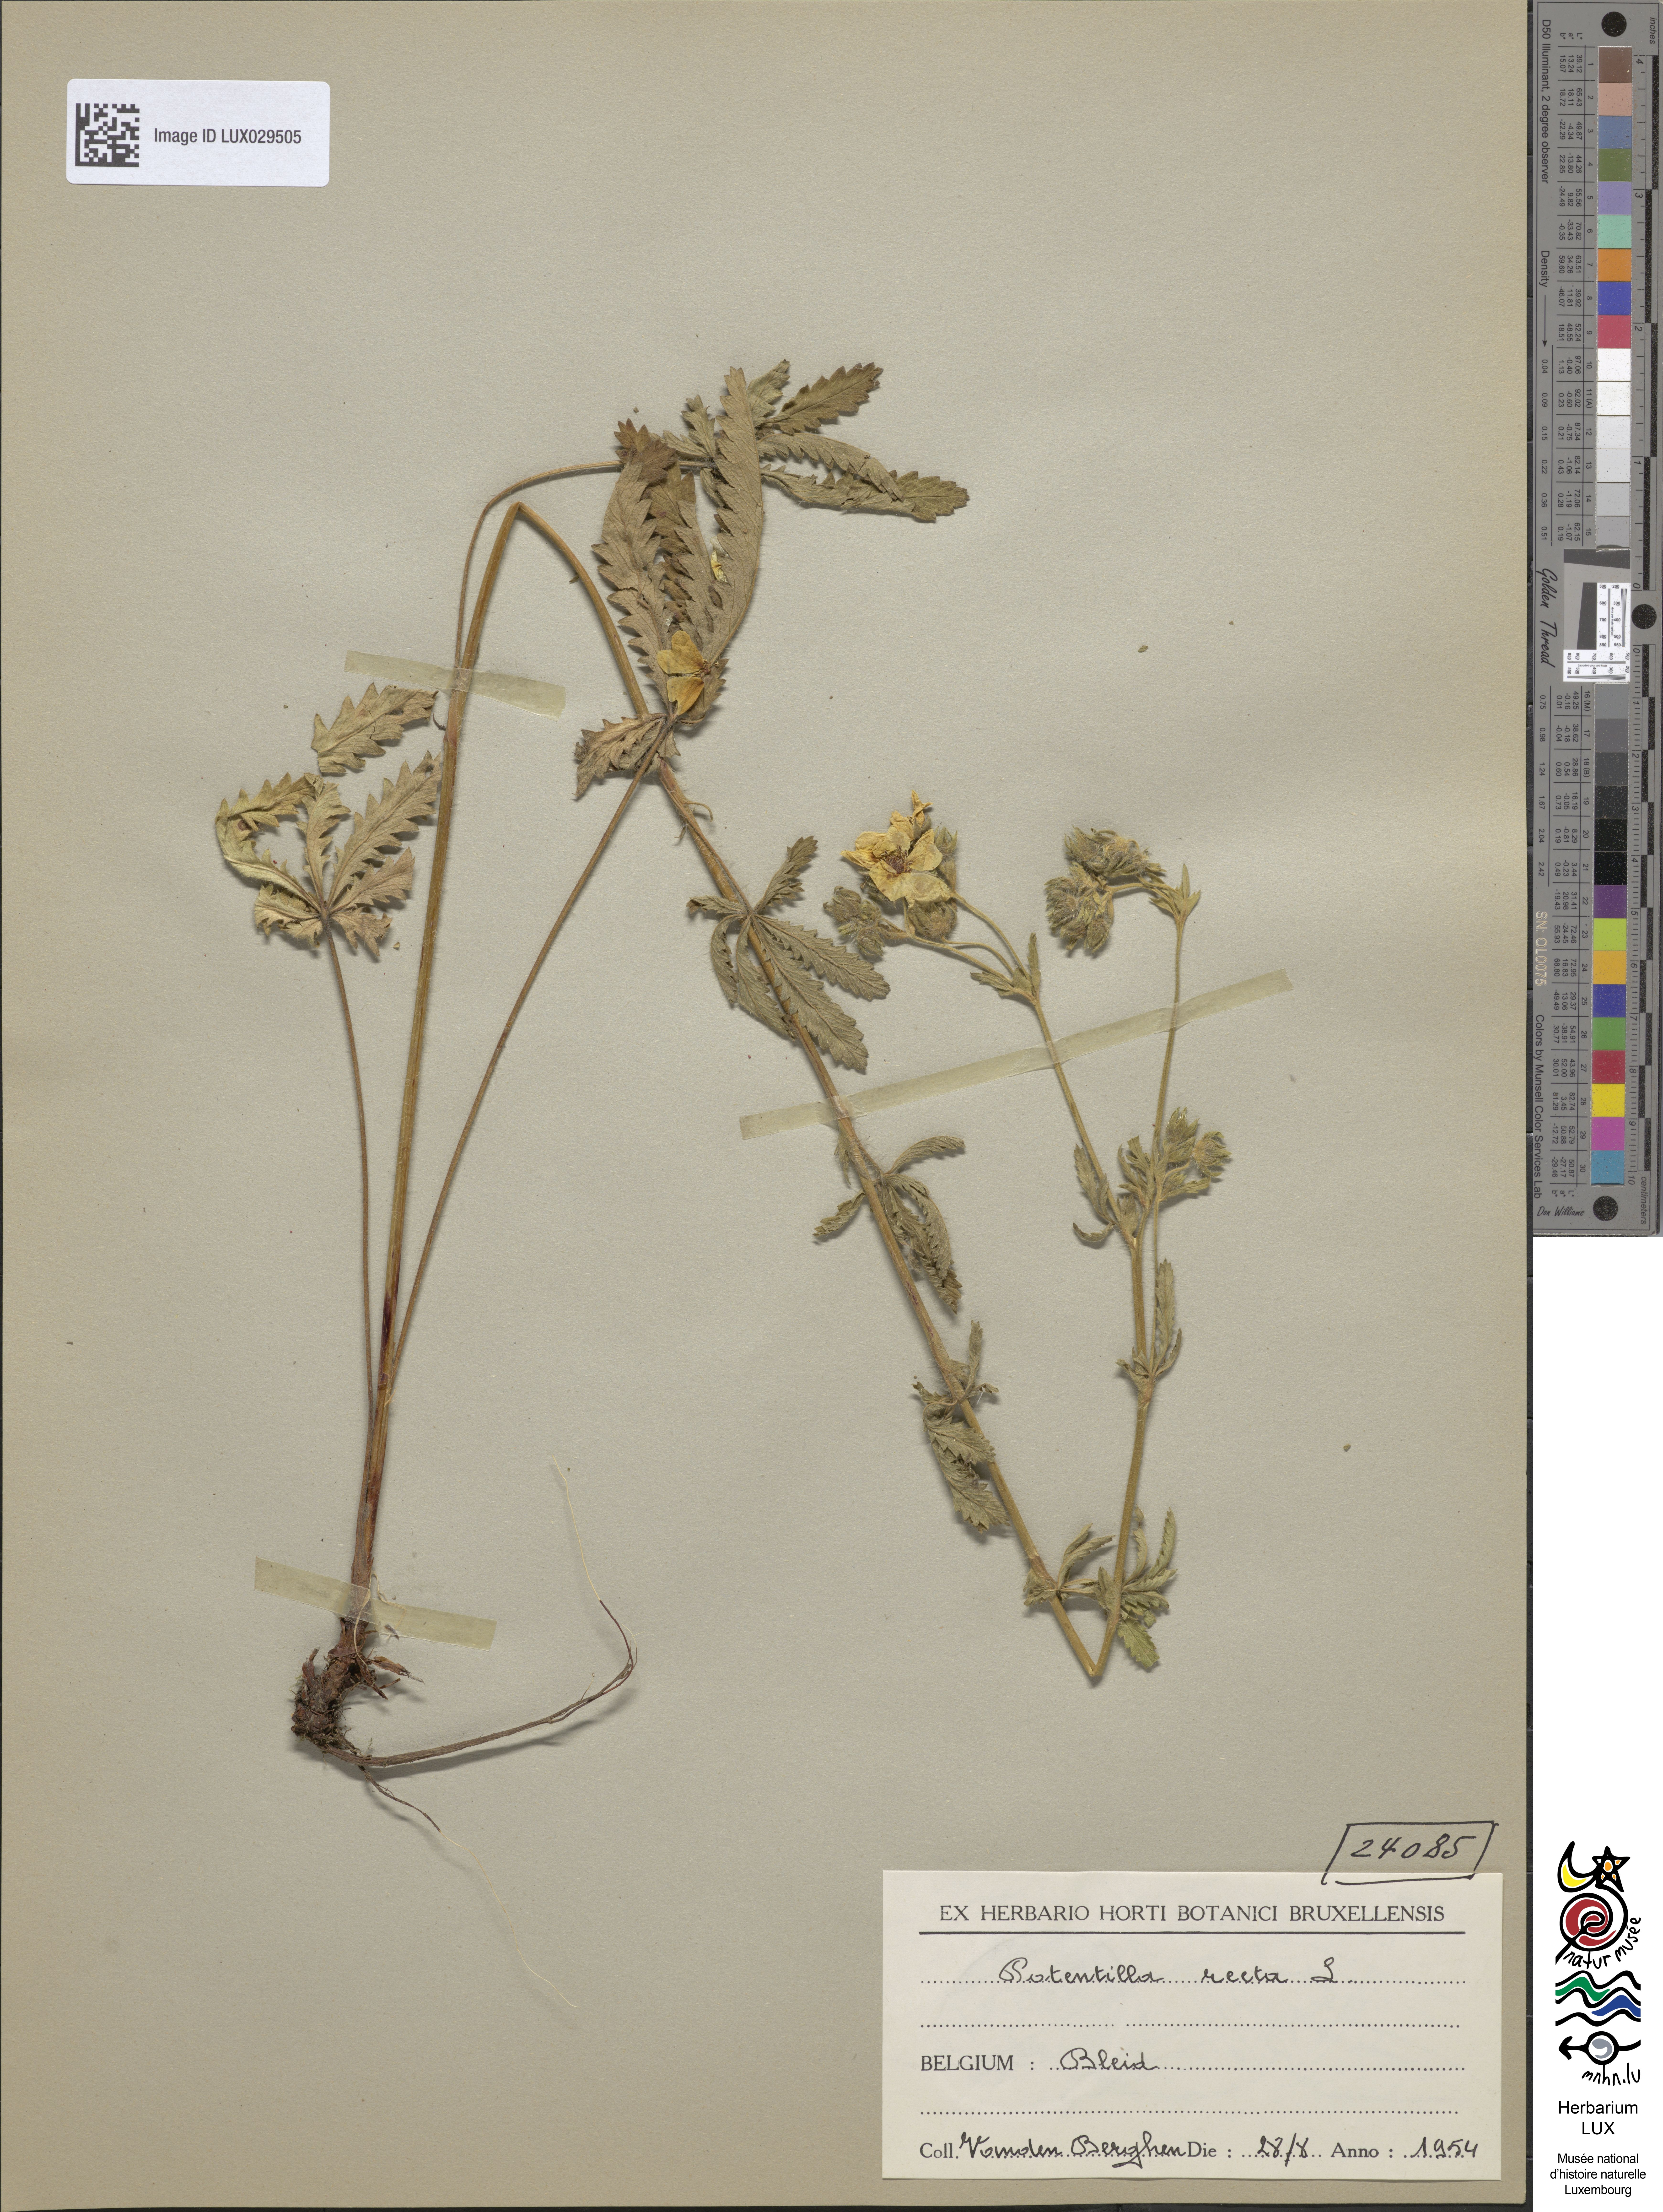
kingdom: Plantae
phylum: Tracheophyta
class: Magnoliopsida
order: Rosales
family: Rosaceae
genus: Potentilla
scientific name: Potentilla recta
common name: Sulphur cinquefoil
